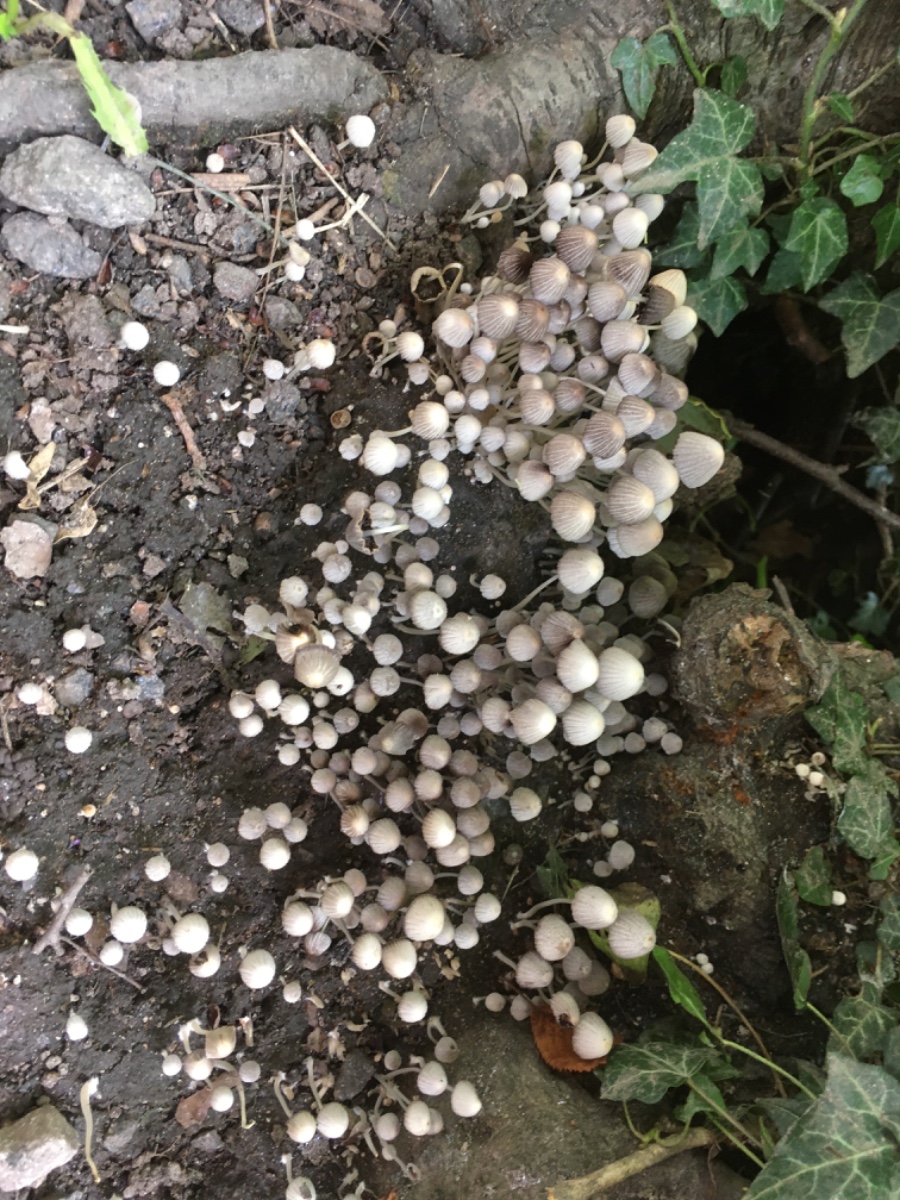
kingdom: Fungi
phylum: Basidiomycota
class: Agaricomycetes
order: Agaricales
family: Psathyrellaceae
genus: Coprinellus
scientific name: Coprinellus disseminatus
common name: bredsået blækhat
